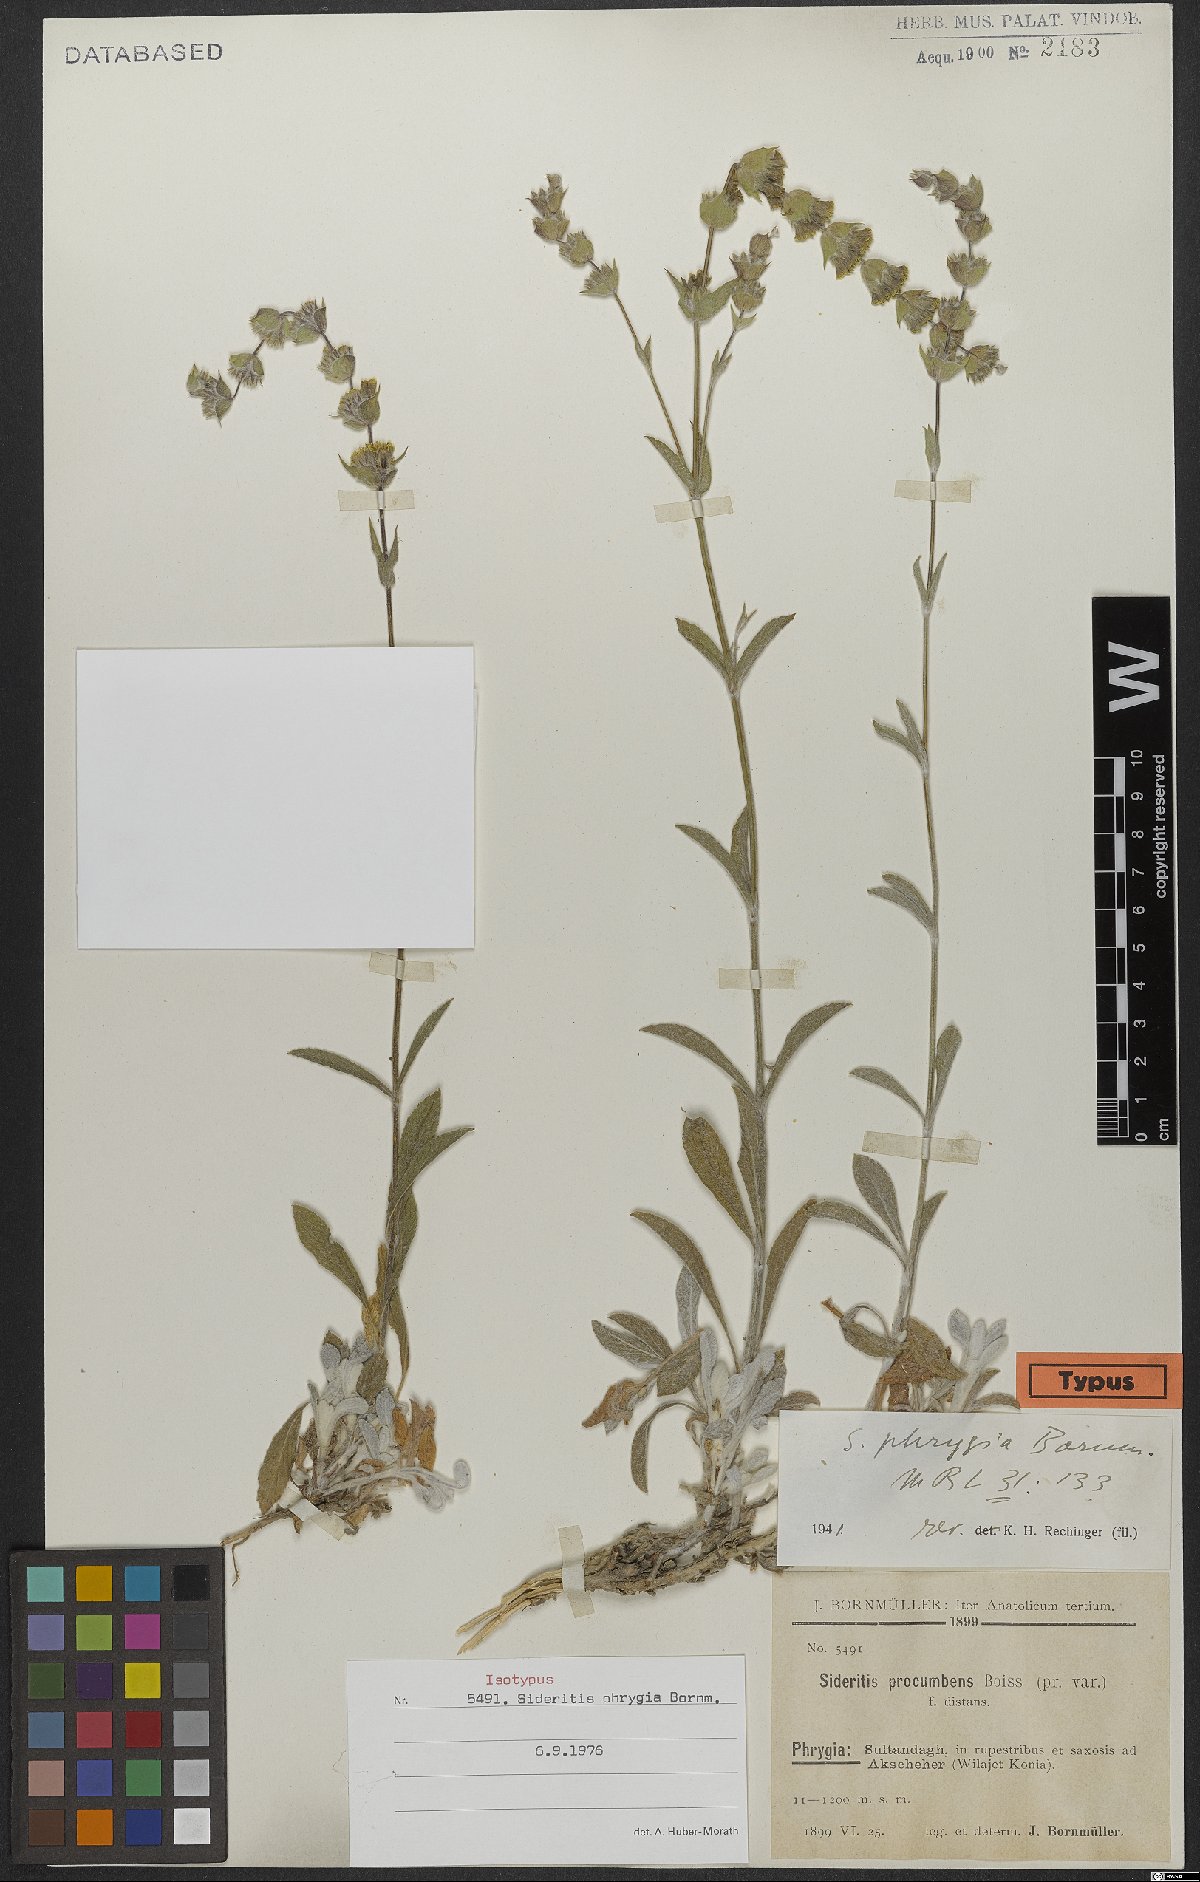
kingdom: Plantae
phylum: Tracheophyta
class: Magnoliopsida
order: Lamiales
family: Lamiaceae
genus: Sideritis
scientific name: Sideritis phrygia
